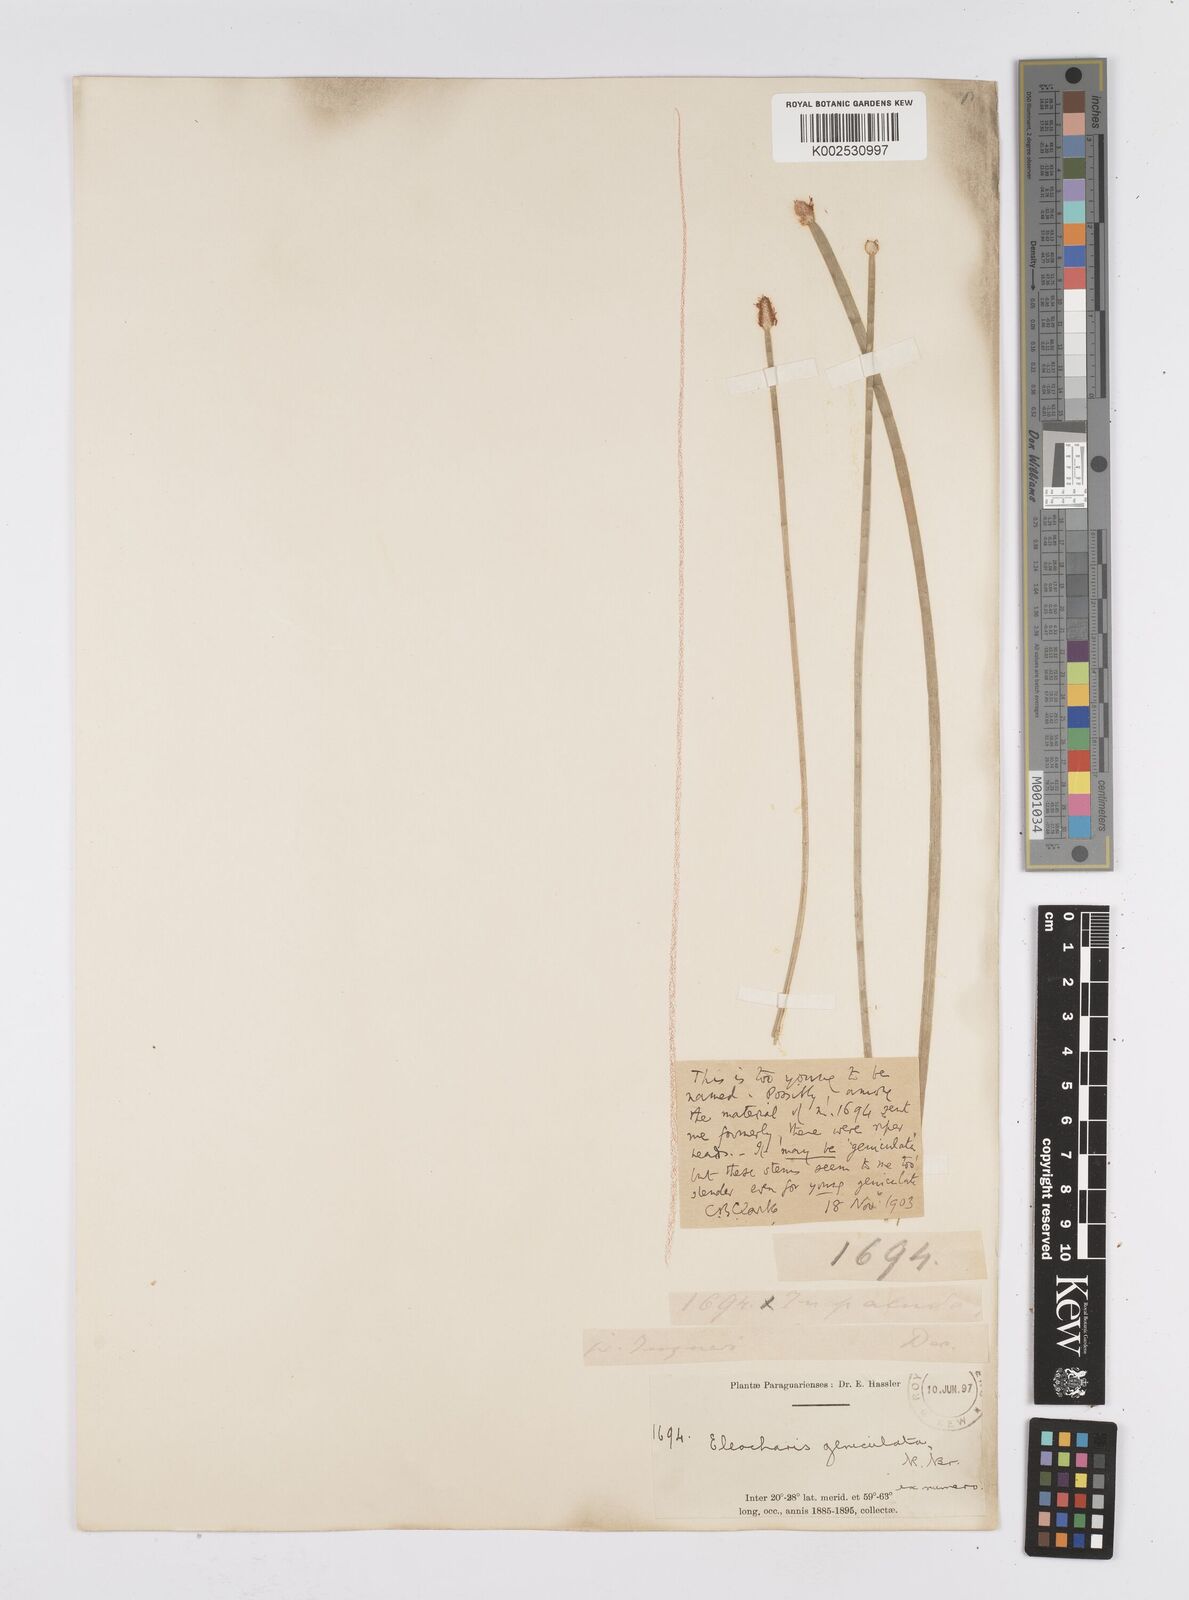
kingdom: Plantae
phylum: Tracheophyta
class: Liliopsida
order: Poales
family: Cyperaceae
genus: Eleocharis
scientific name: Eleocharis elegans
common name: Elegant spike-rush
